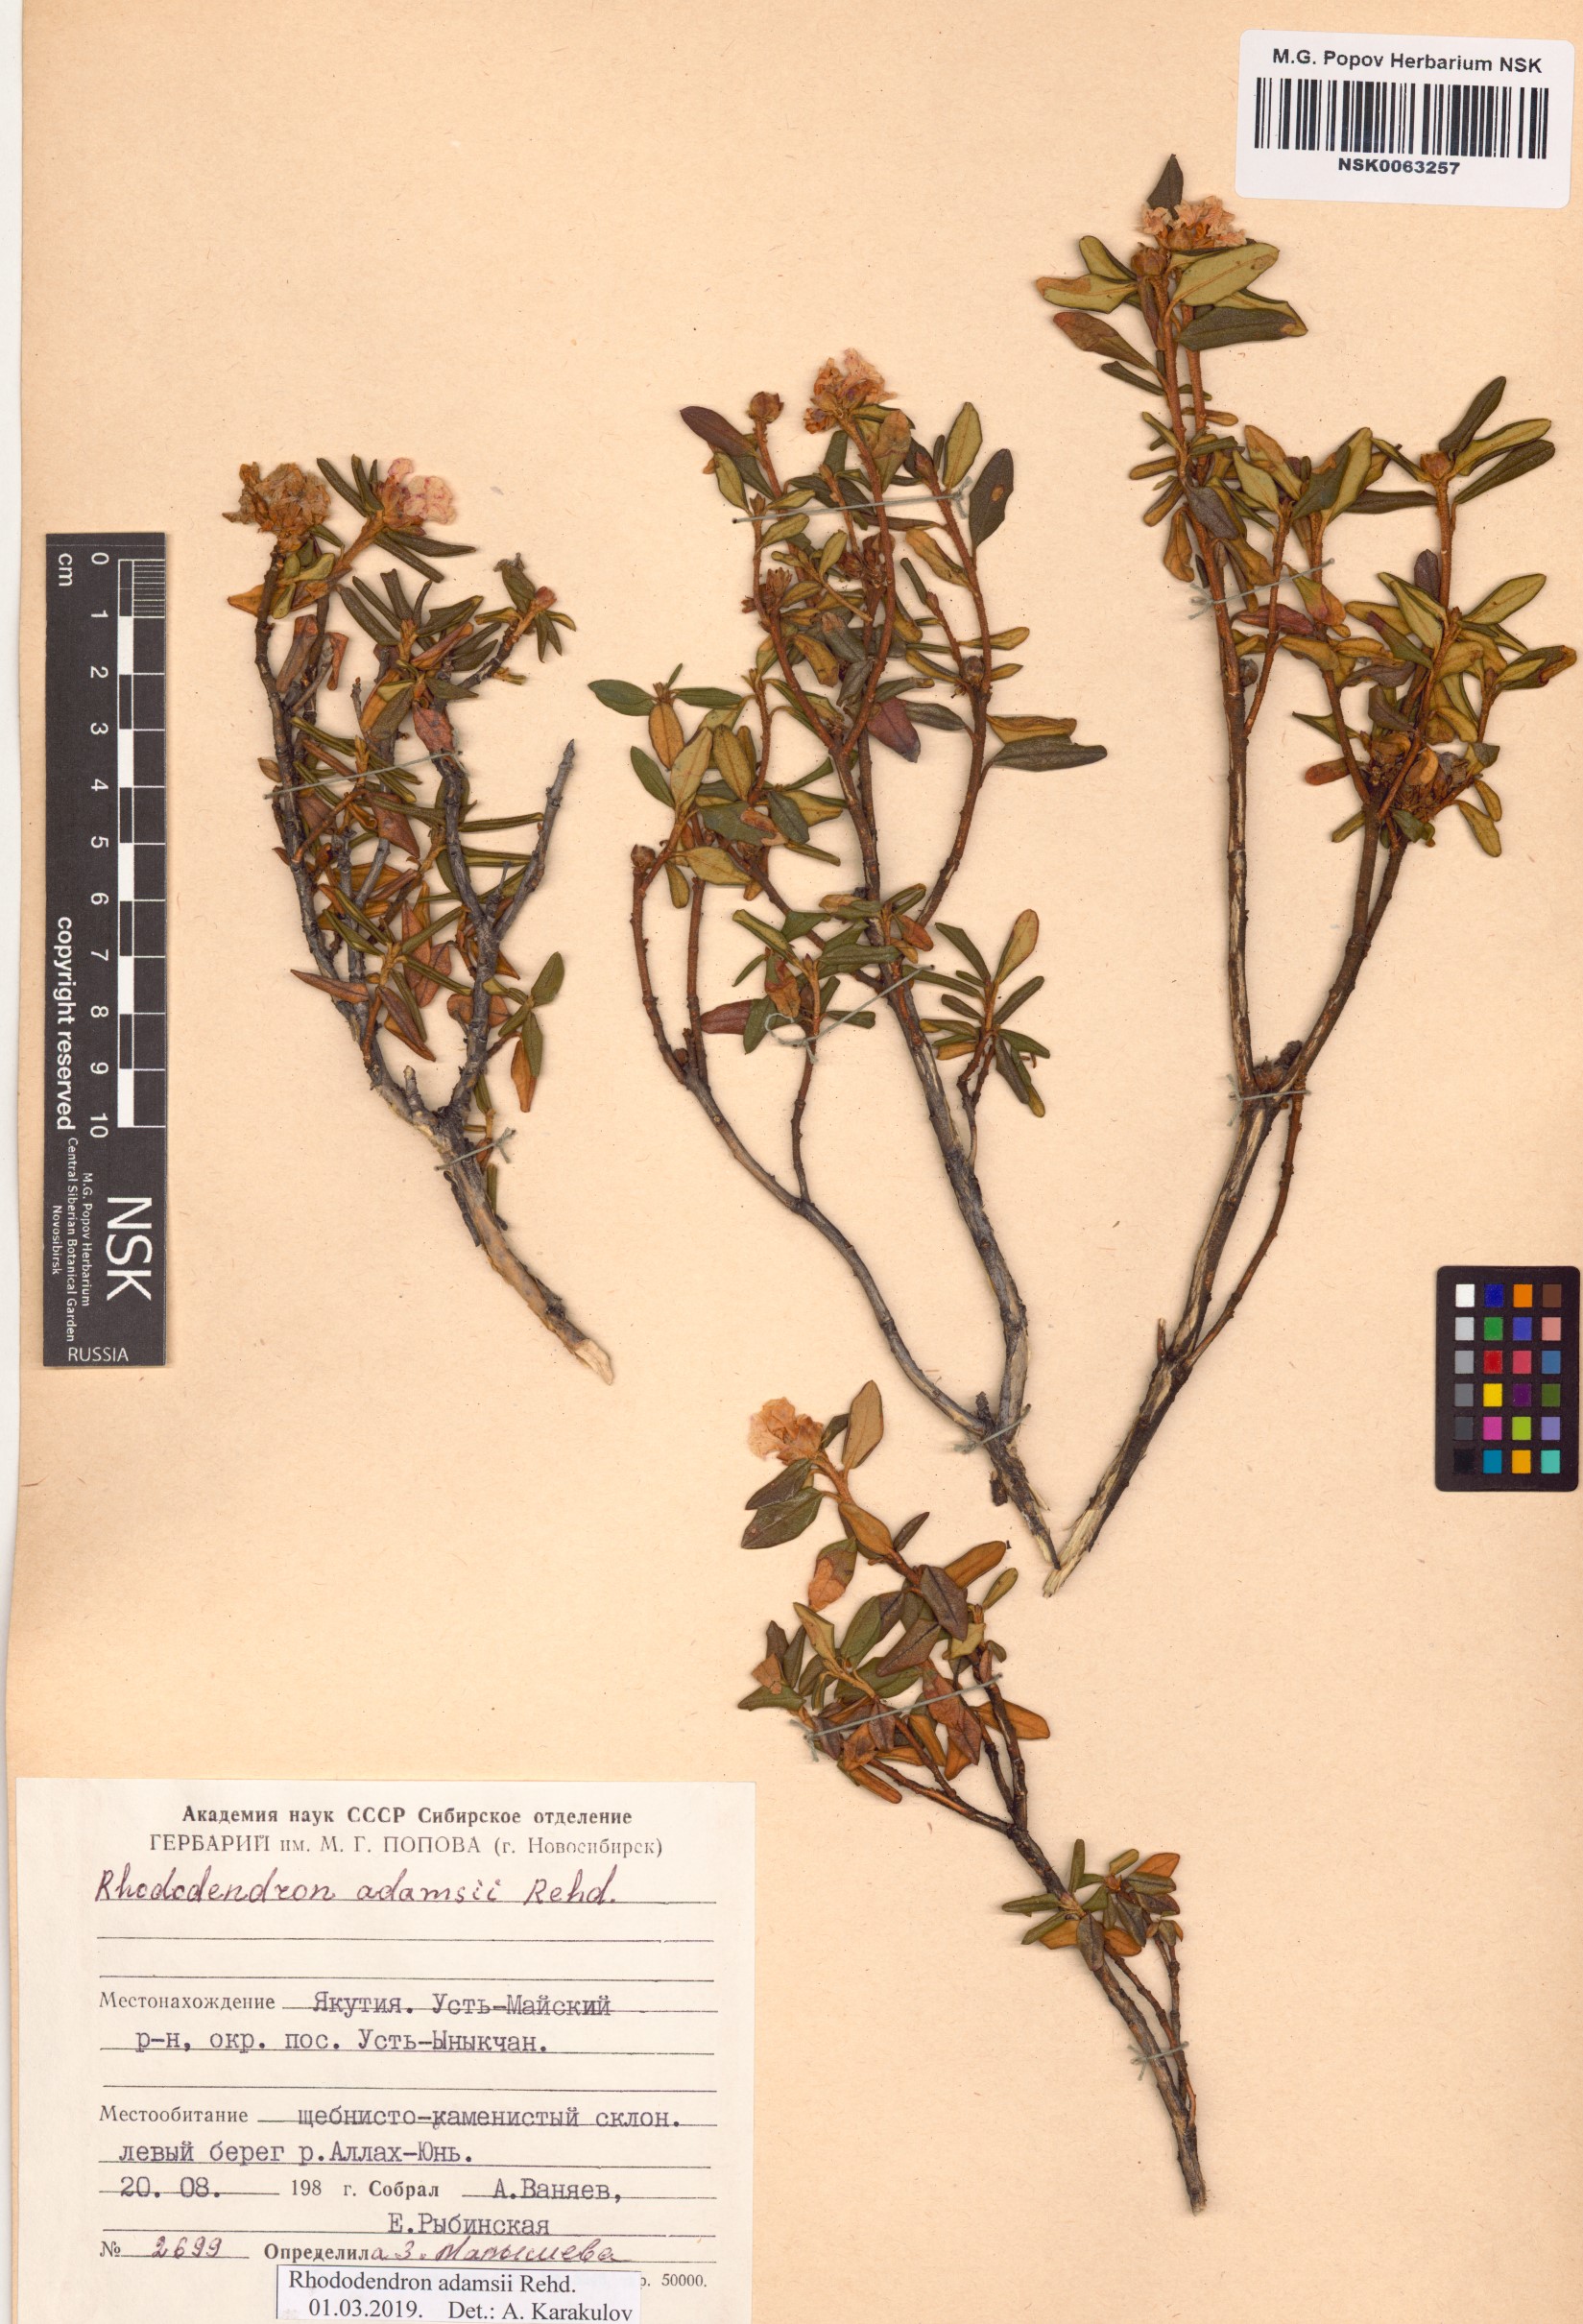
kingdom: Plantae
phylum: Tracheophyta
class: Magnoliopsida
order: Ericales
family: Ericaceae
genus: Rhododendron
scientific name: Rhododendron adamsii
